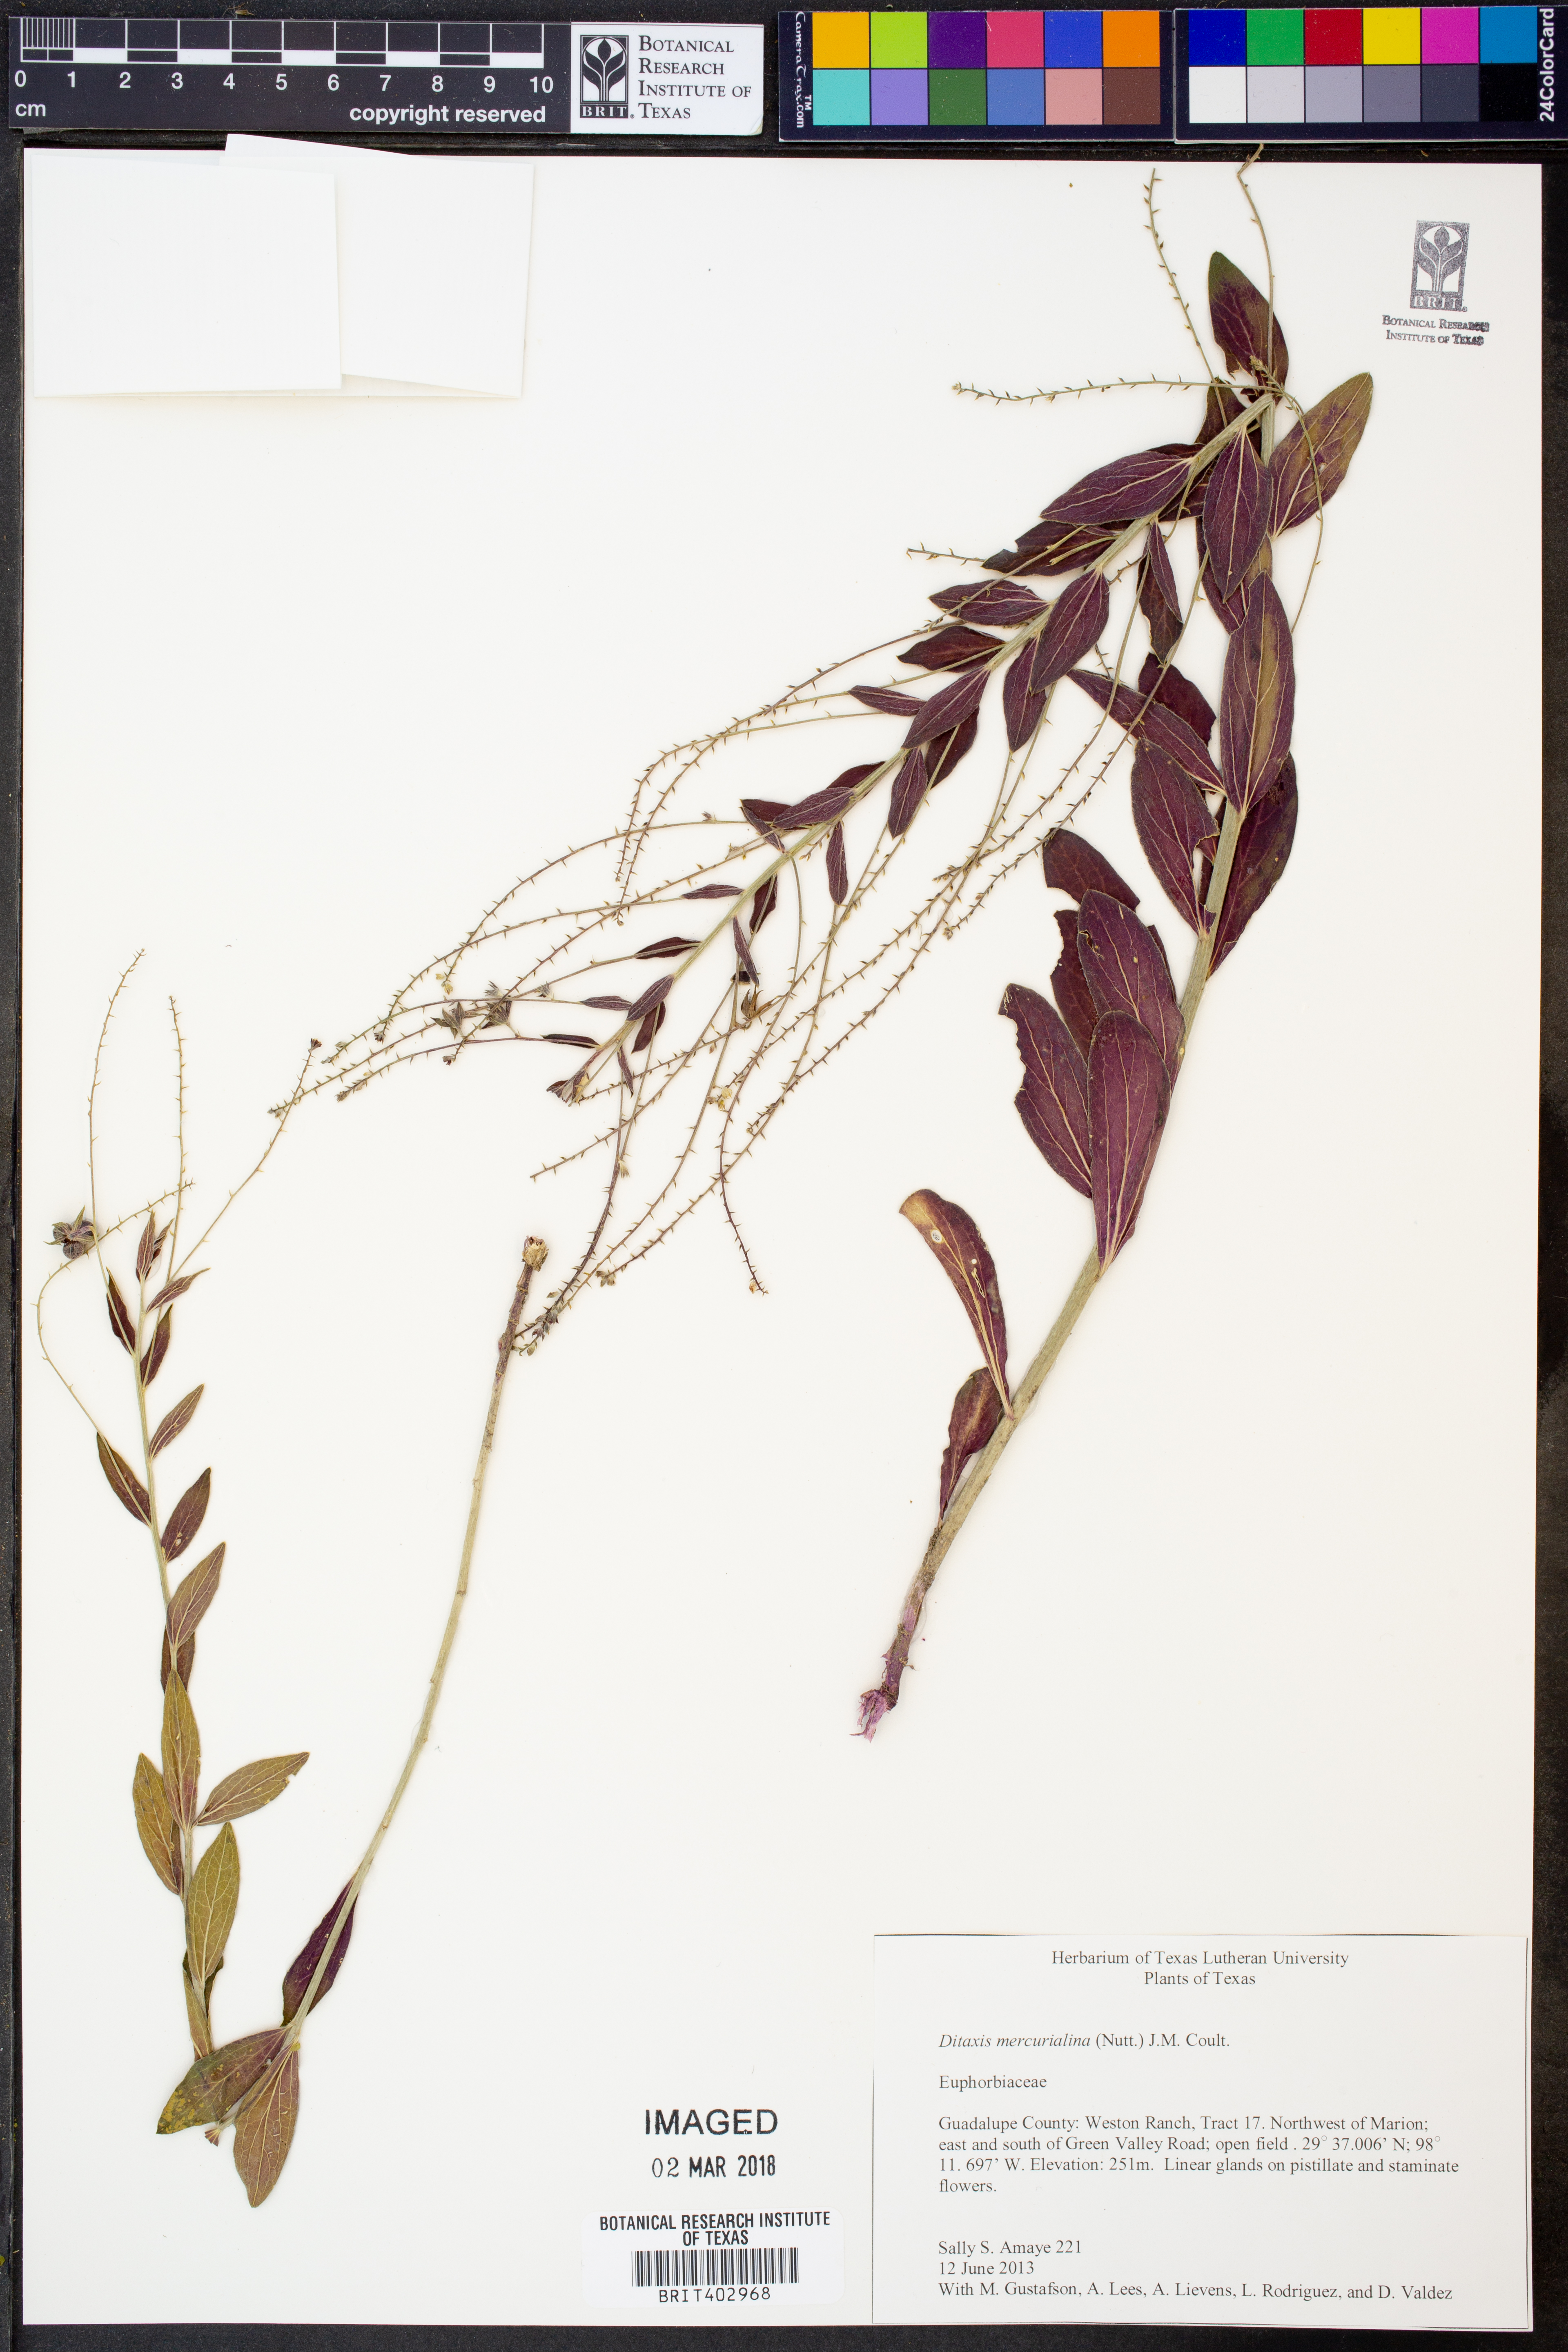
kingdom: Plantae
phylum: Tracheophyta
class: Magnoliopsida
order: Malpighiales
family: Euphorbiaceae
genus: Ditaxis
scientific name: Ditaxis mercurialina
